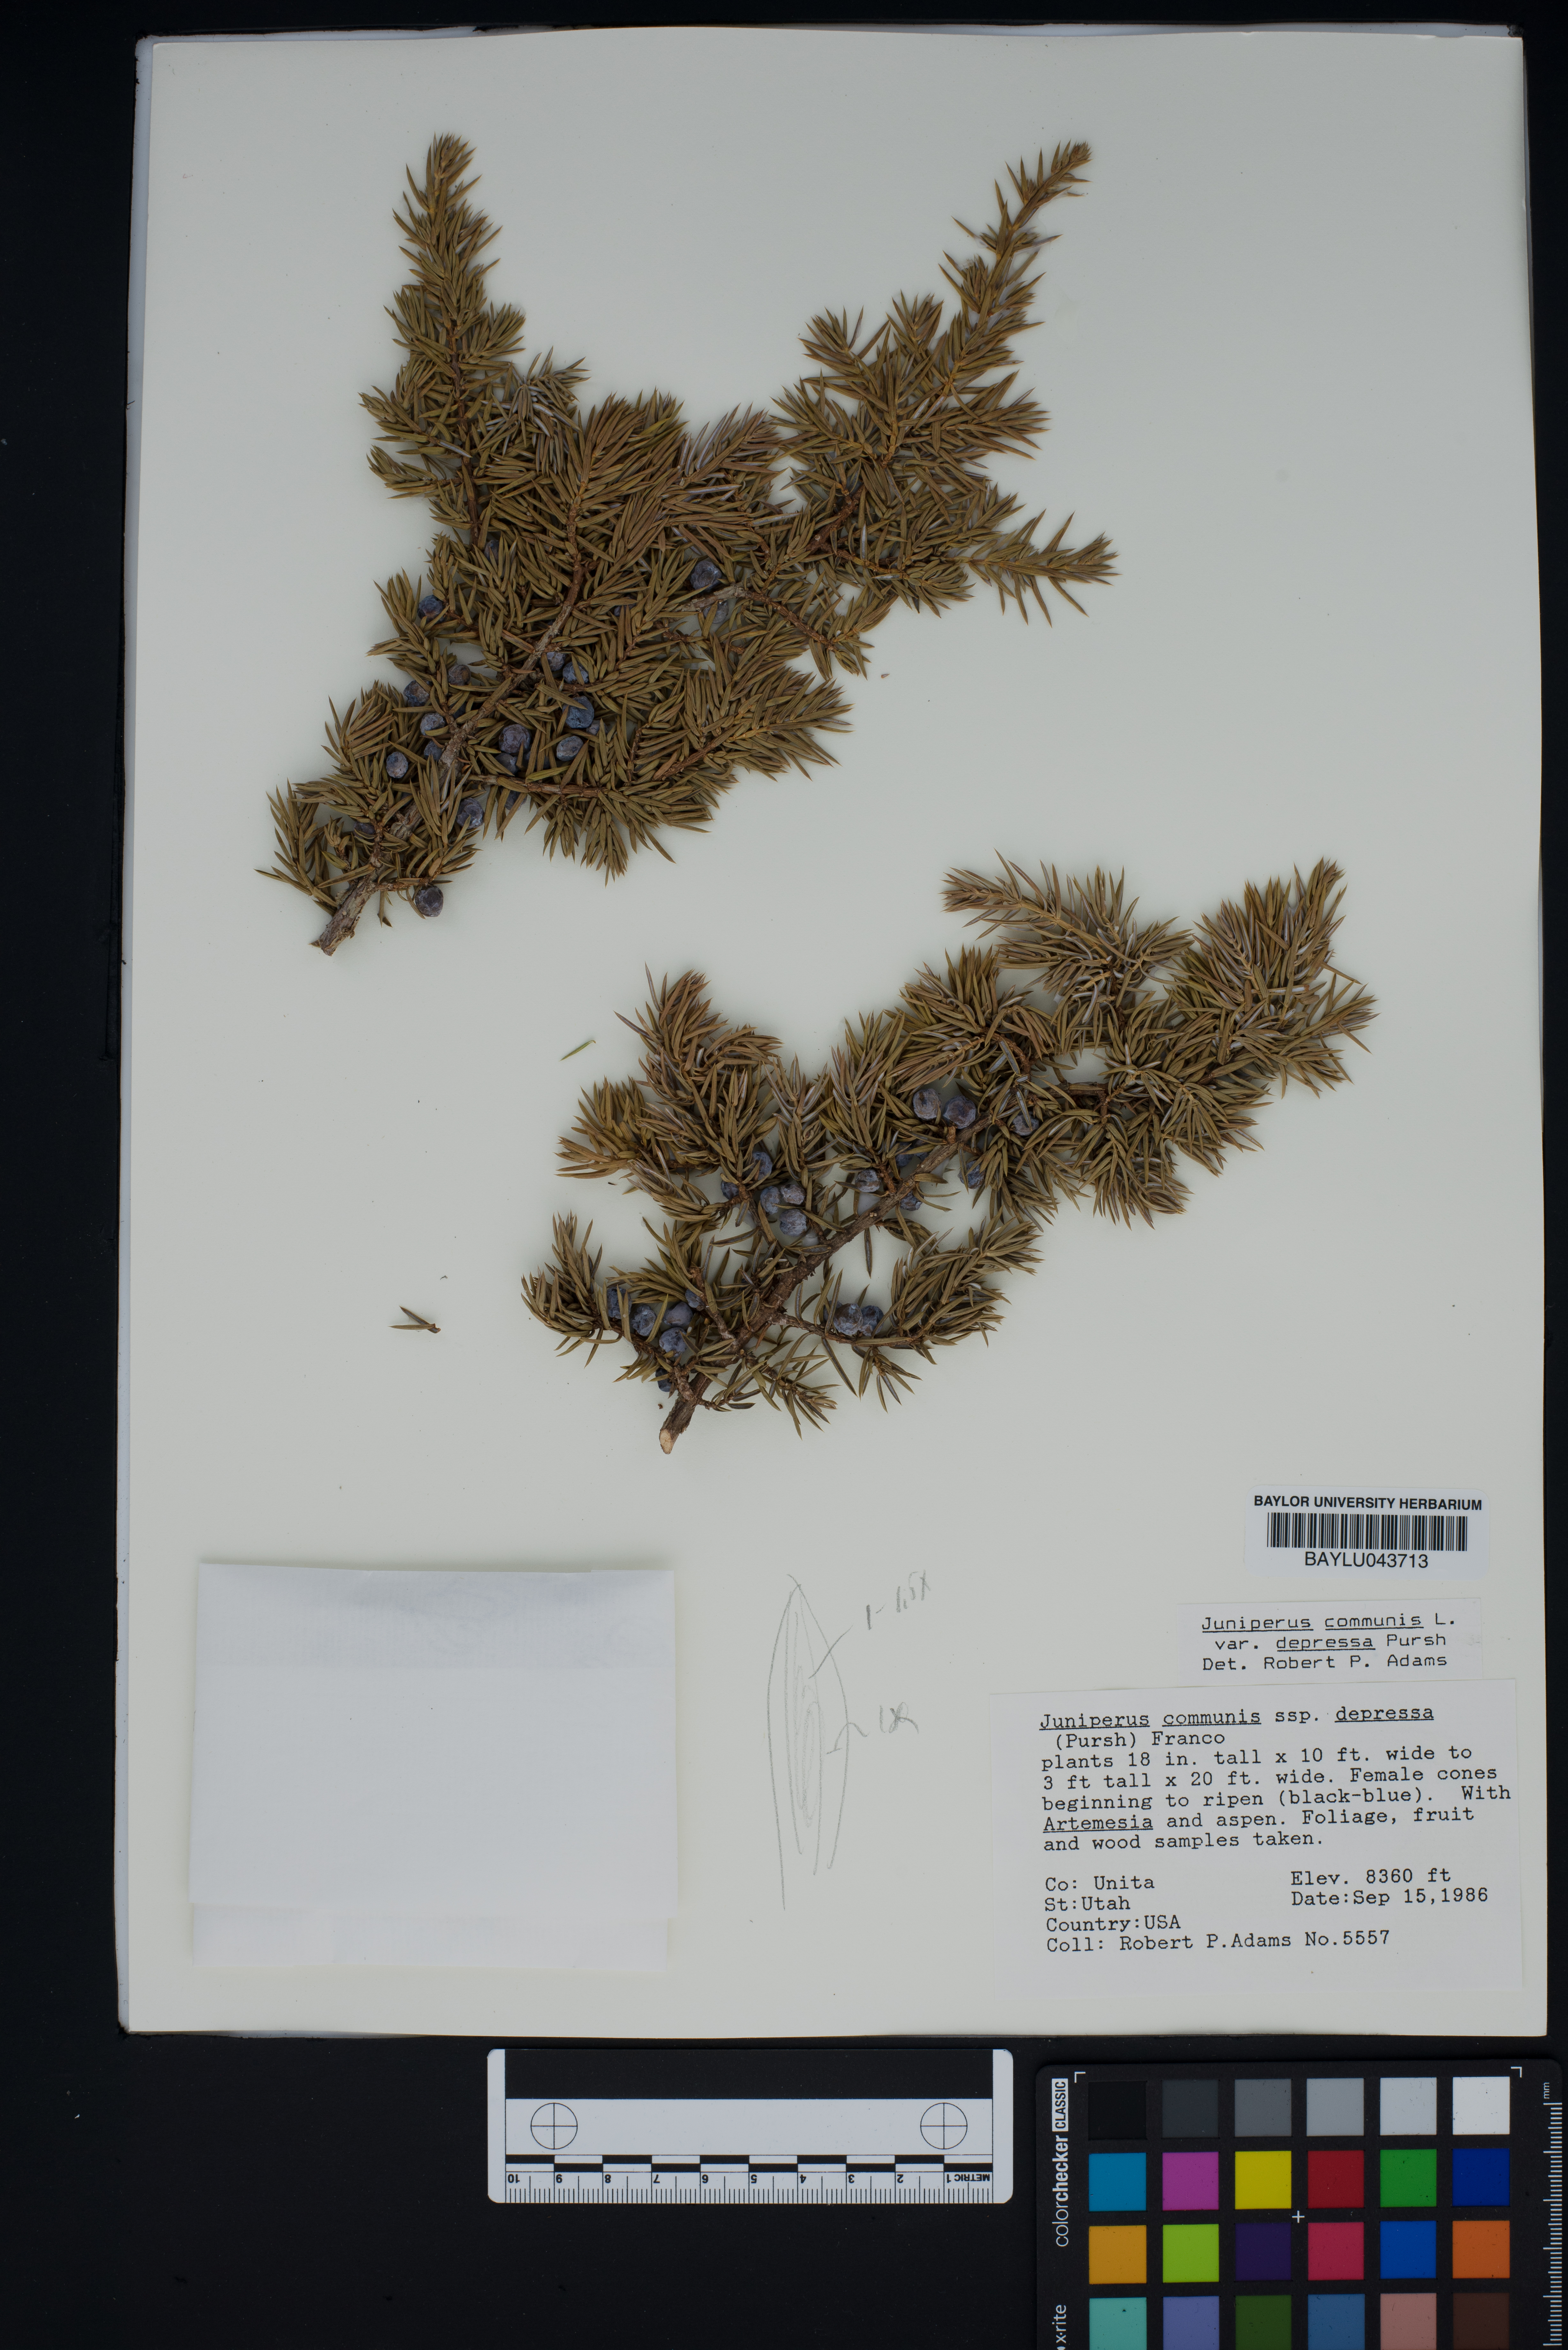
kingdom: Plantae
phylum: Tracheophyta
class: Pinopsida
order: Pinales
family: Cupressaceae
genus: Juniperus
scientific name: Juniperus communis
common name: Common juniper
